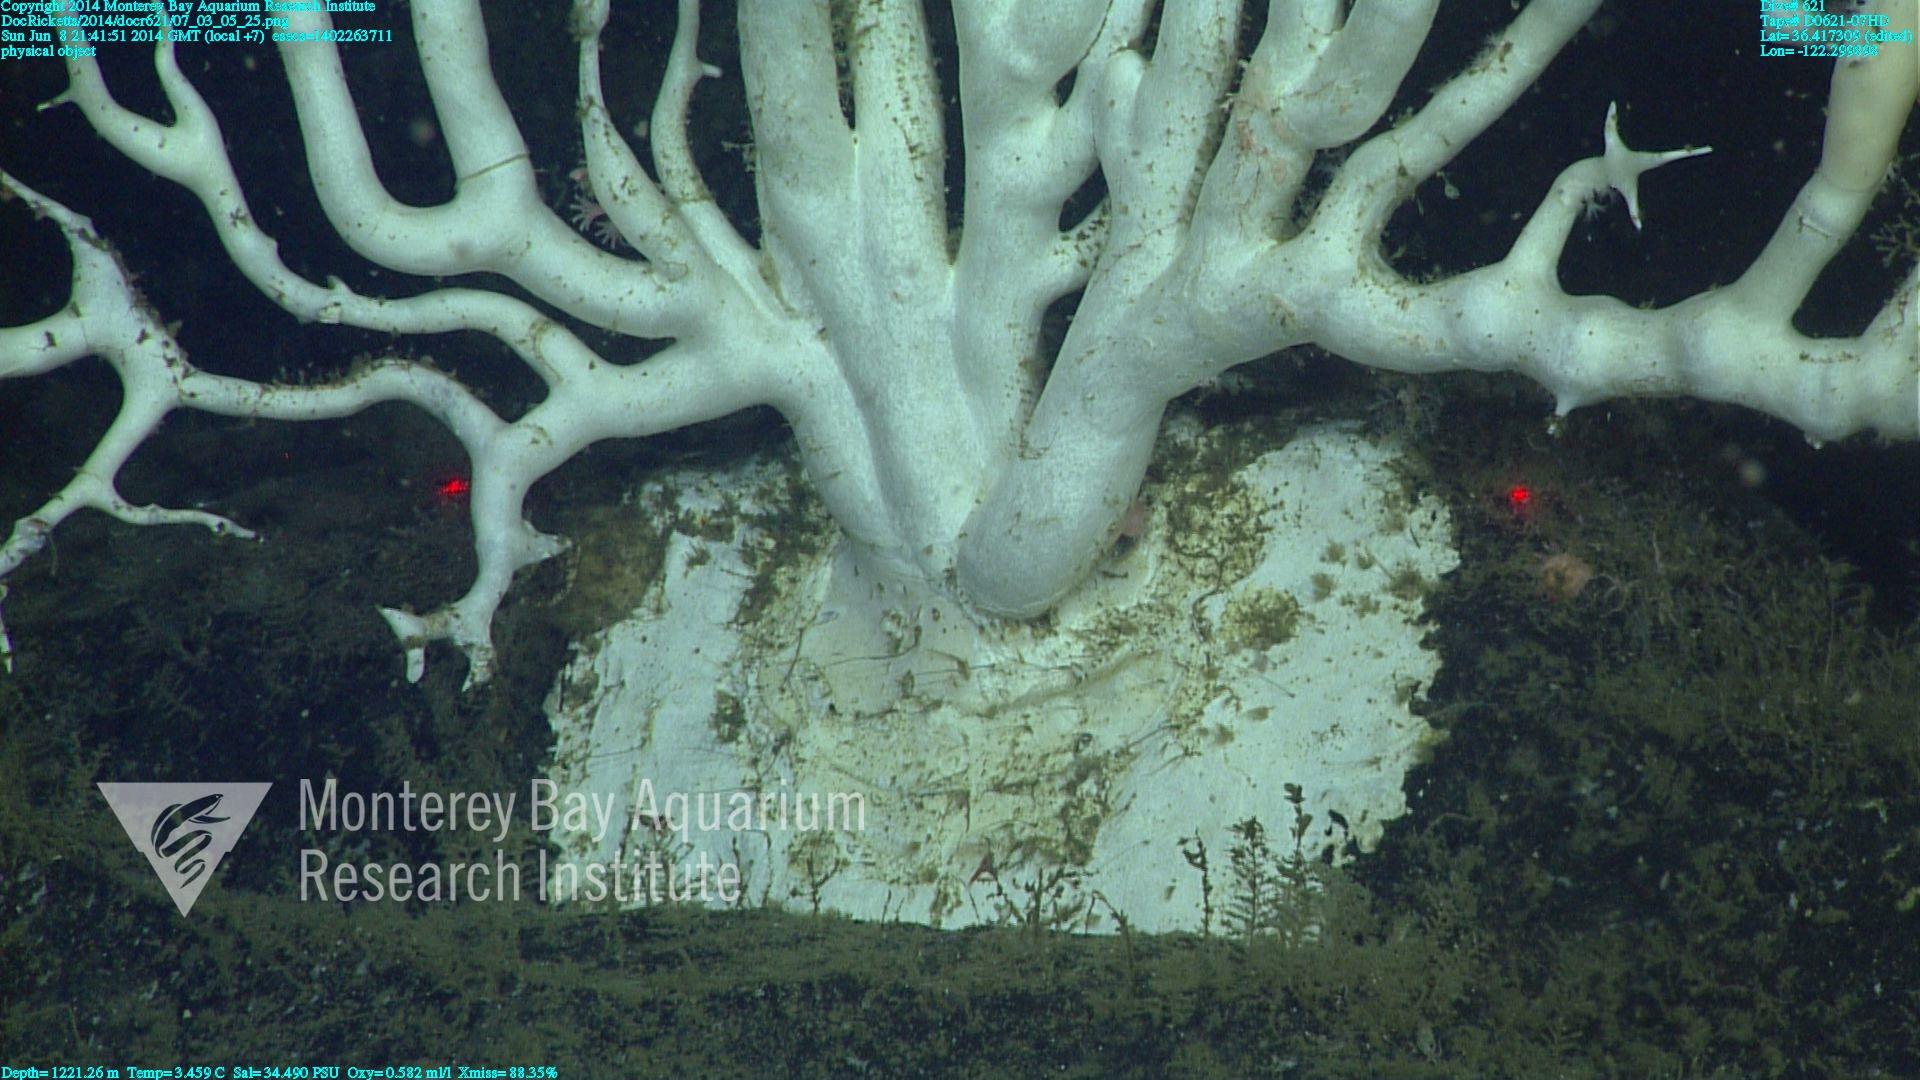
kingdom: Animalia
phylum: Cnidaria
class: Anthozoa
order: Scleralcyonacea
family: Keratoisididae
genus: Keratoisis
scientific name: Keratoisis
